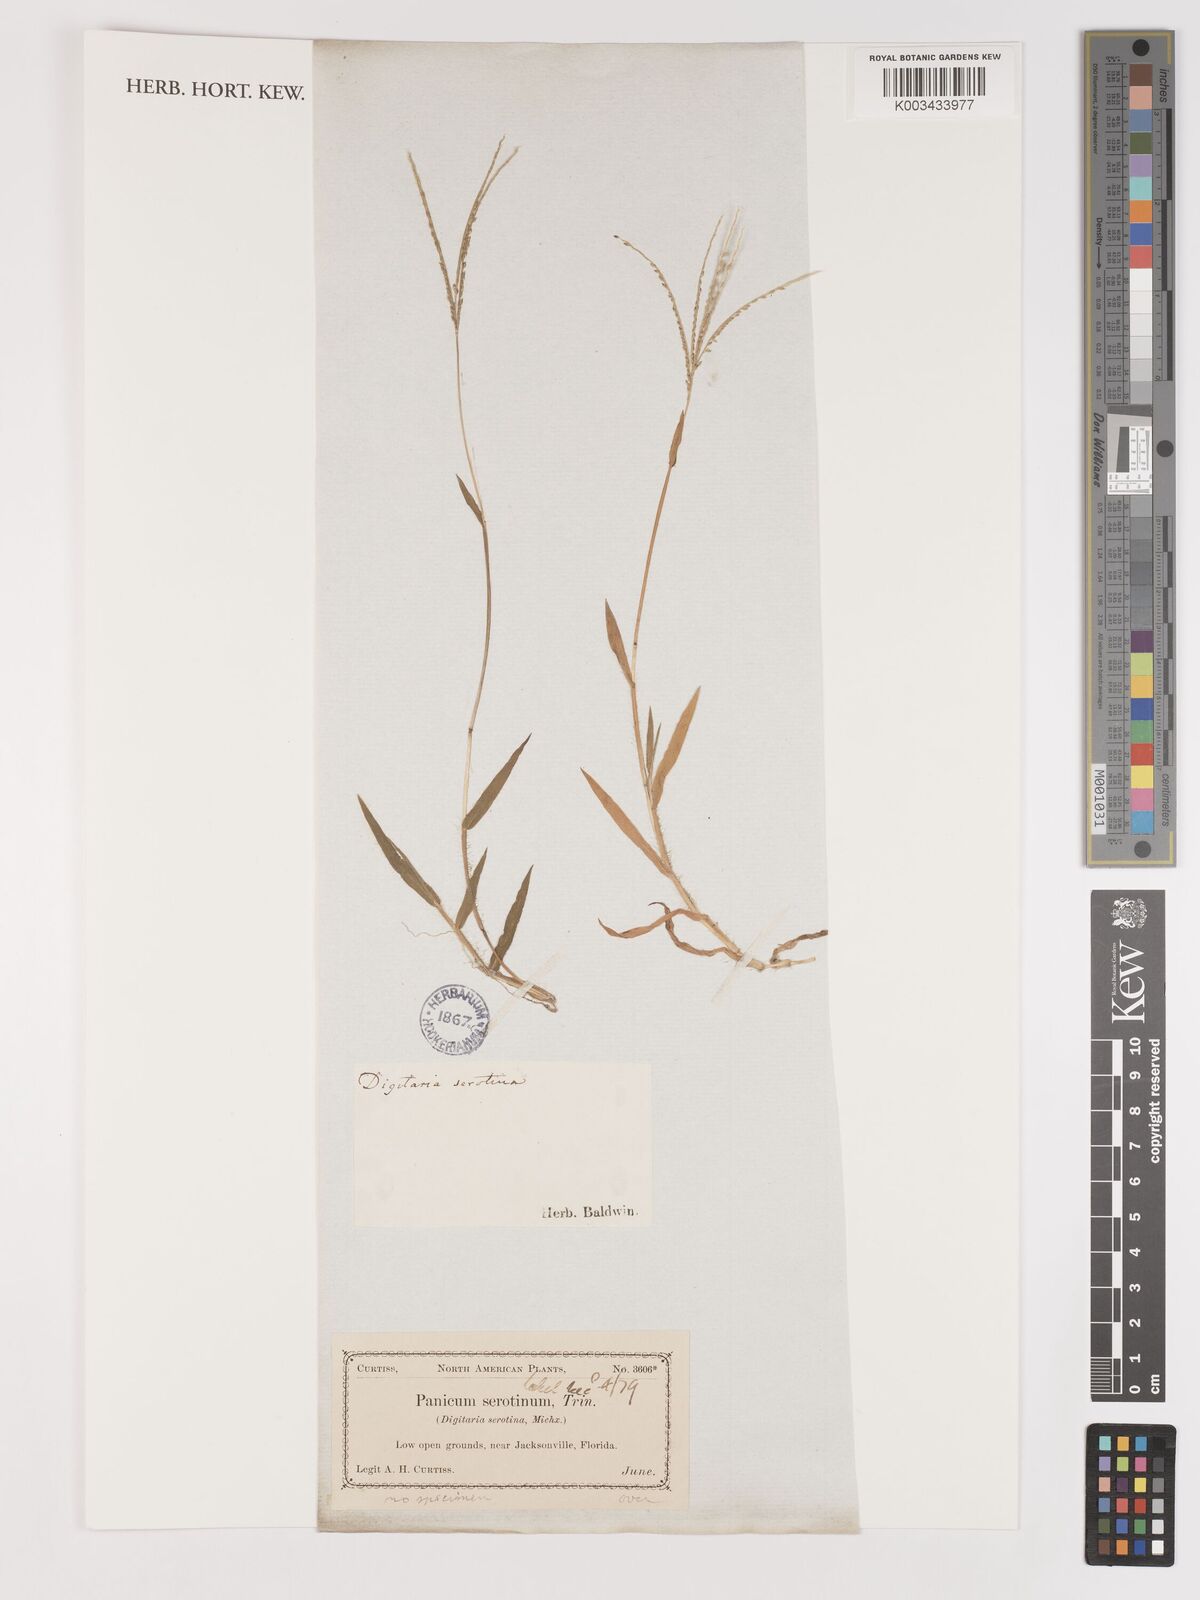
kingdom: Plantae
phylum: Tracheophyta
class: Liliopsida
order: Poales
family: Poaceae
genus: Digitaria
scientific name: Digitaria serotina
